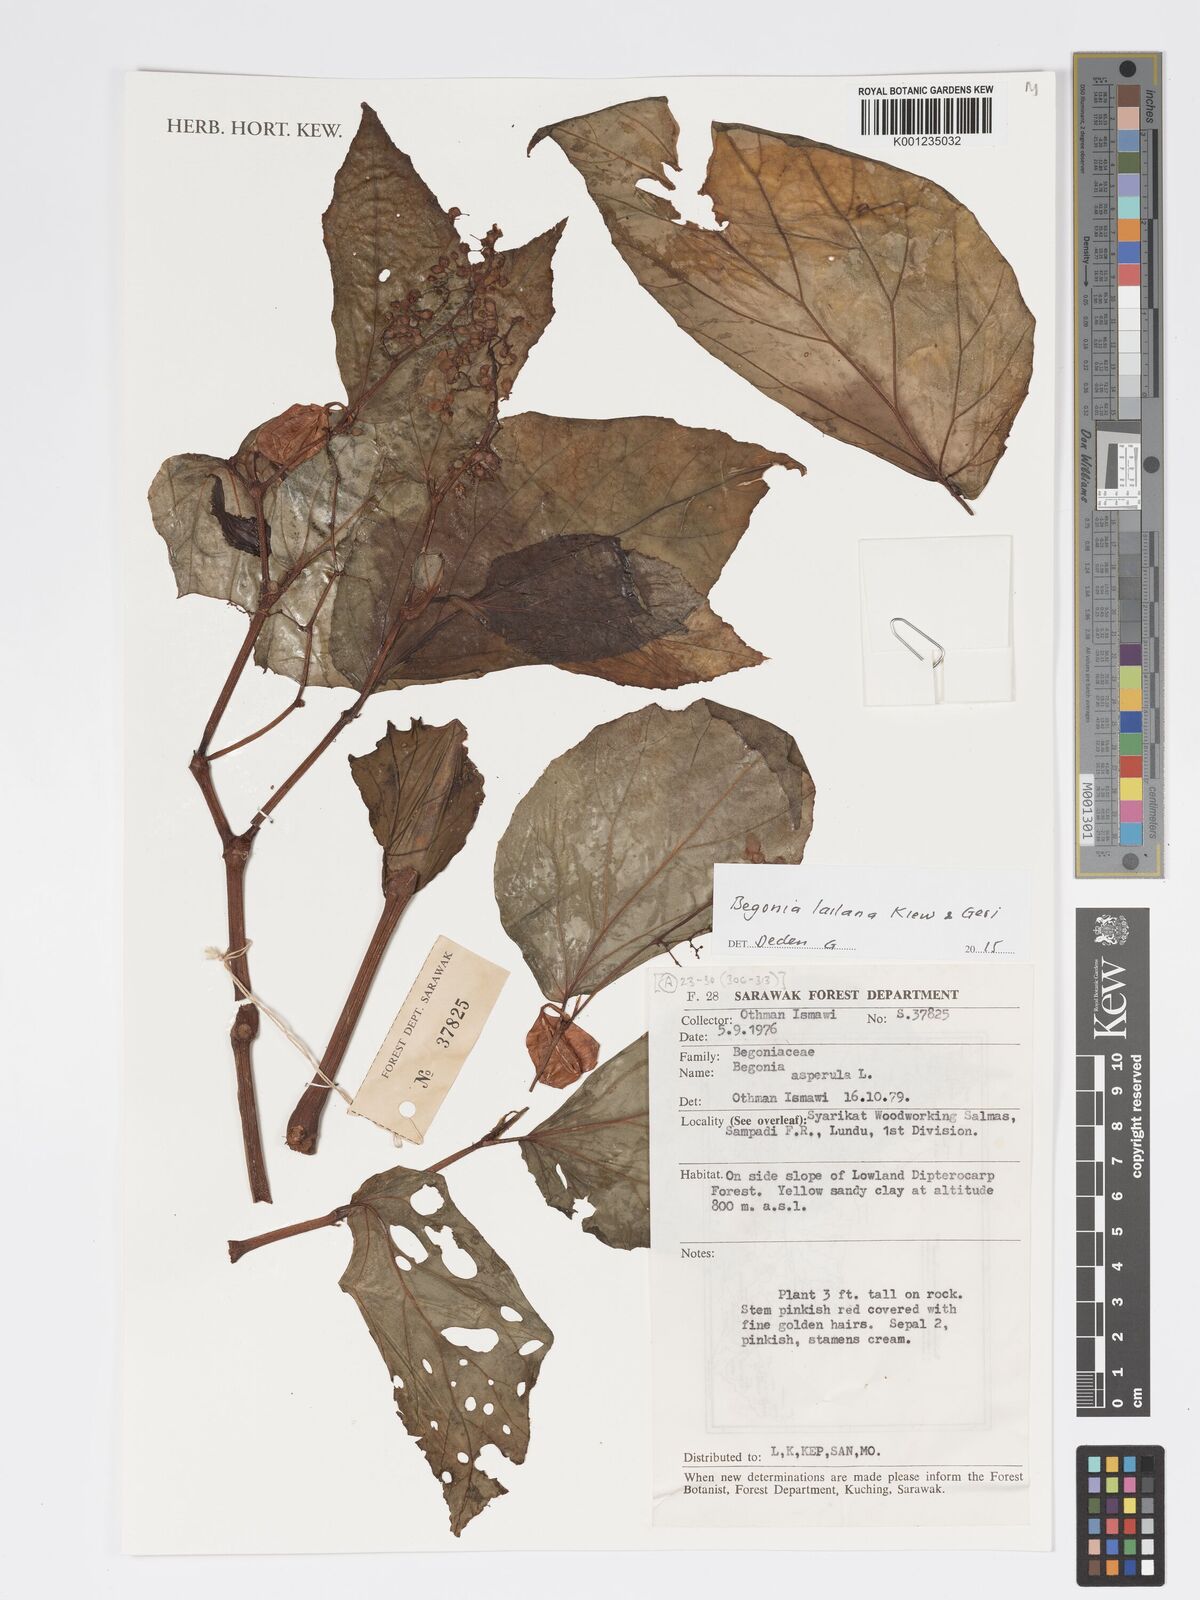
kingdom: Plantae
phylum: Tracheophyta
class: Magnoliopsida
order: Cucurbitales
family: Begoniaceae
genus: Begonia
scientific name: Begonia lailana
